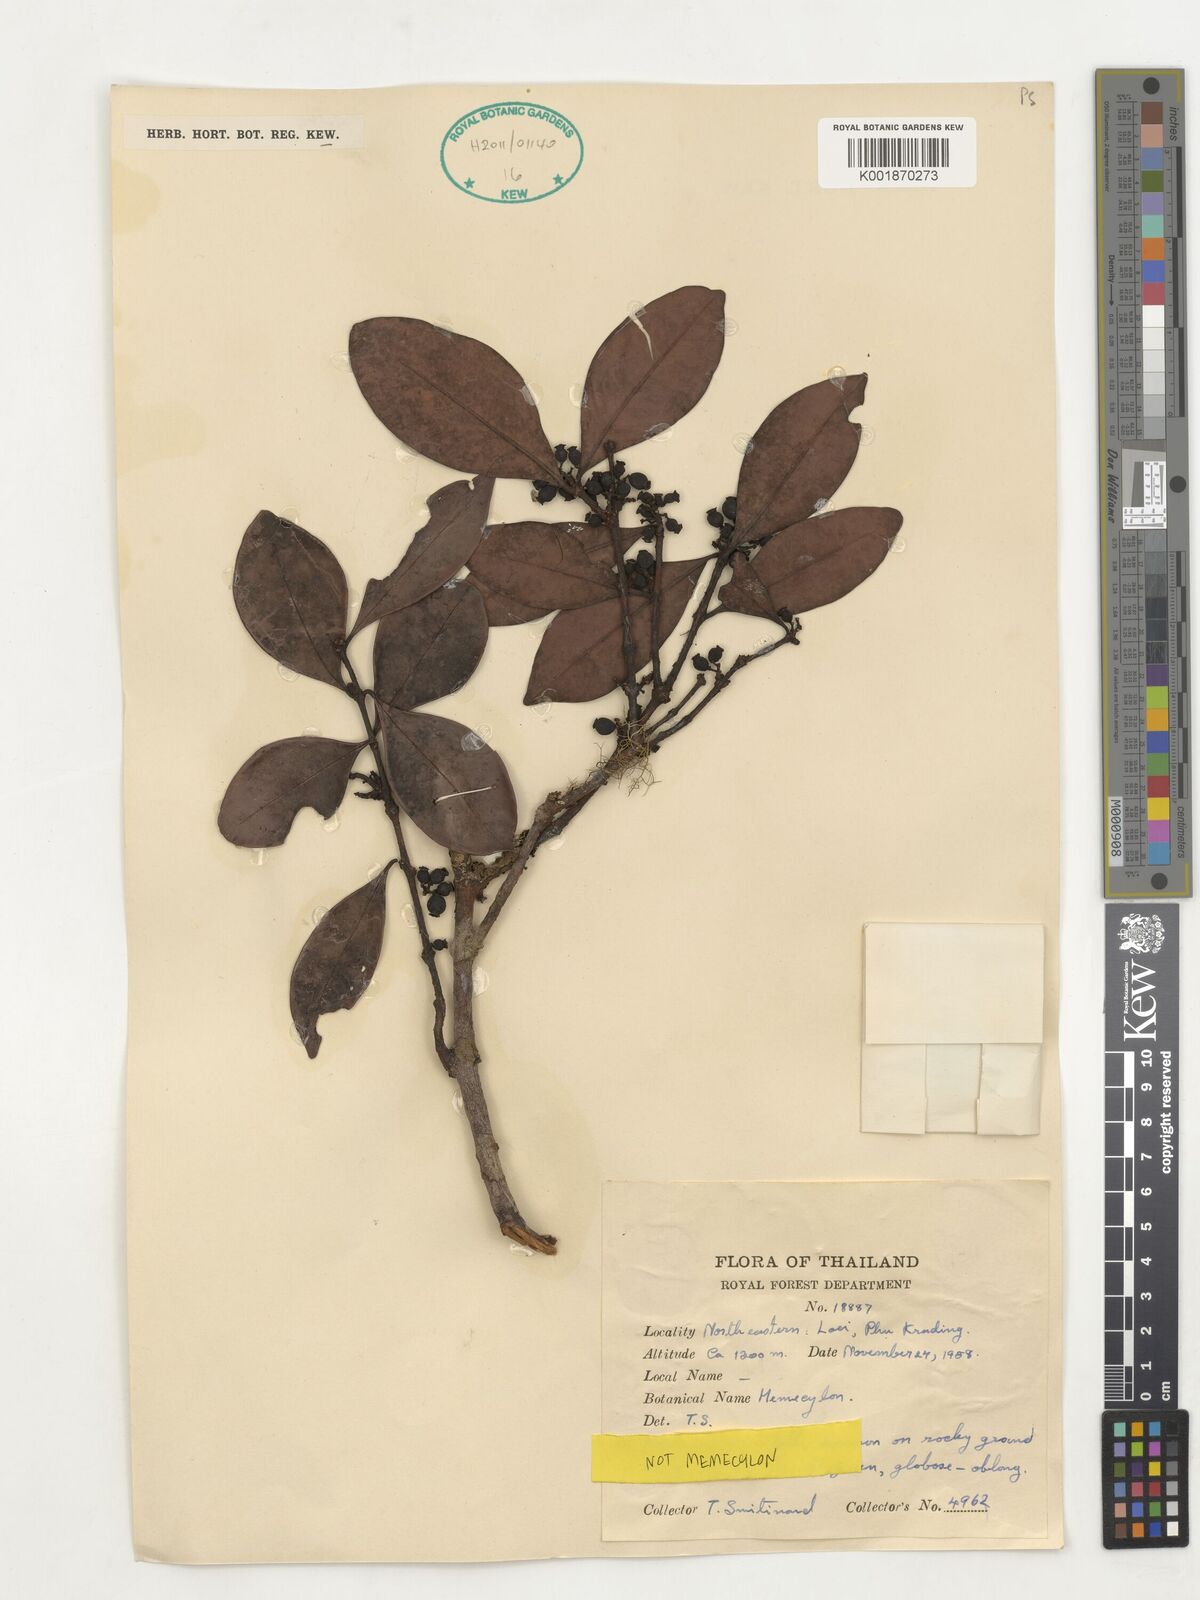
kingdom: Plantae
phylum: Tracheophyta
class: Magnoliopsida
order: Myrtales
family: Melastomataceae
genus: Memecylon
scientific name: Memecylon
